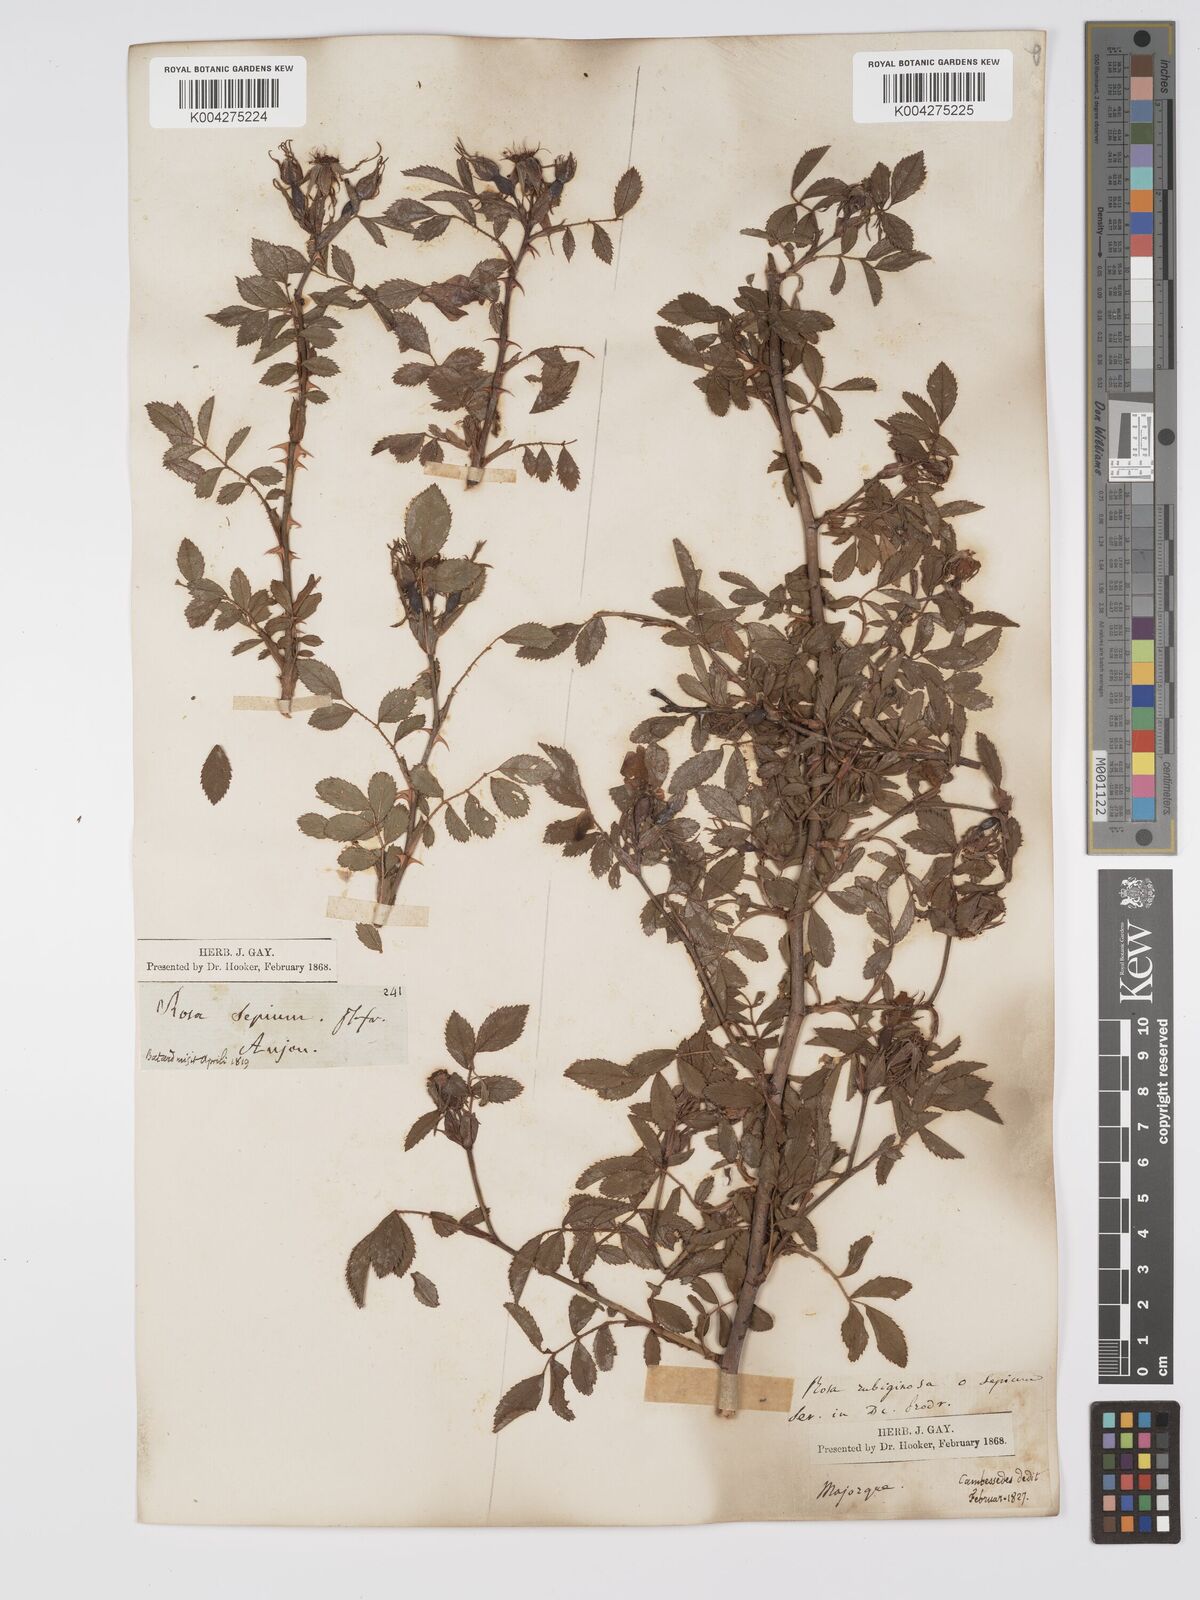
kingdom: Plantae
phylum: Tracheophyta
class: Magnoliopsida
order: Rosales
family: Rosaceae
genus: Rosa
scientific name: Rosa
